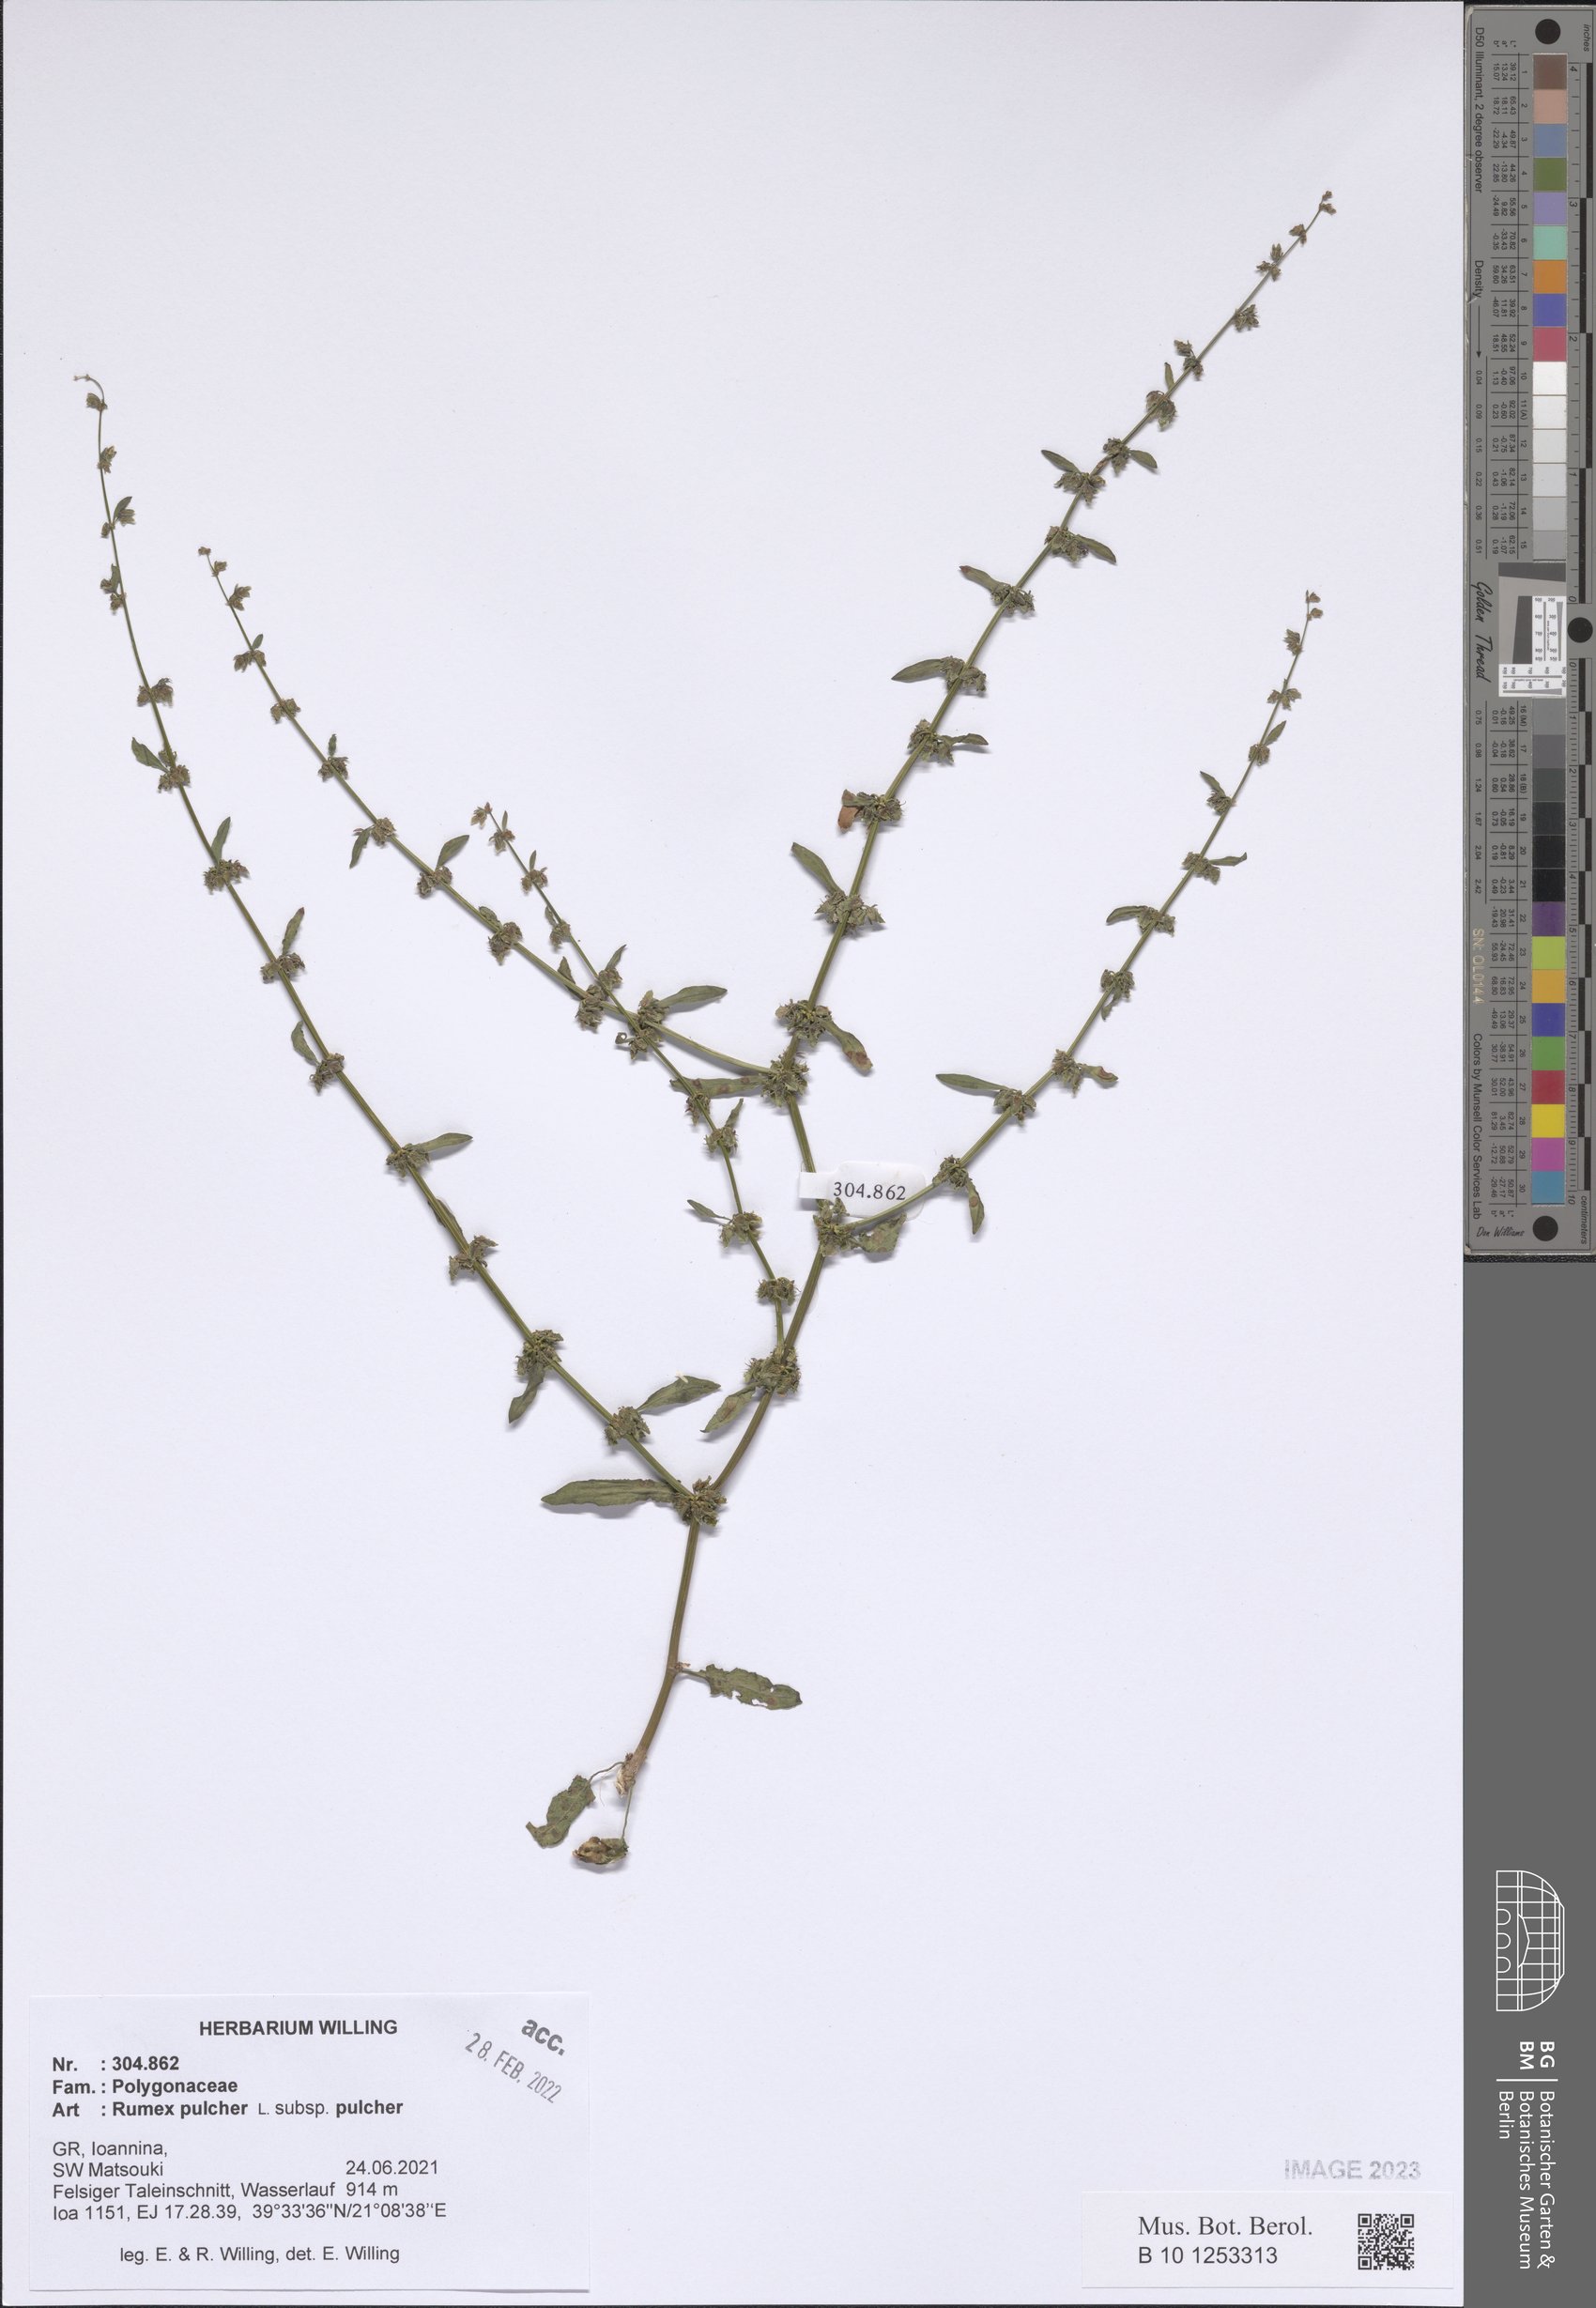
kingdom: Plantae
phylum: Tracheophyta
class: Magnoliopsida
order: Caryophyllales
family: Polygonaceae
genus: Rumex
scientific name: Rumex pulcher
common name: Fiddle dock
